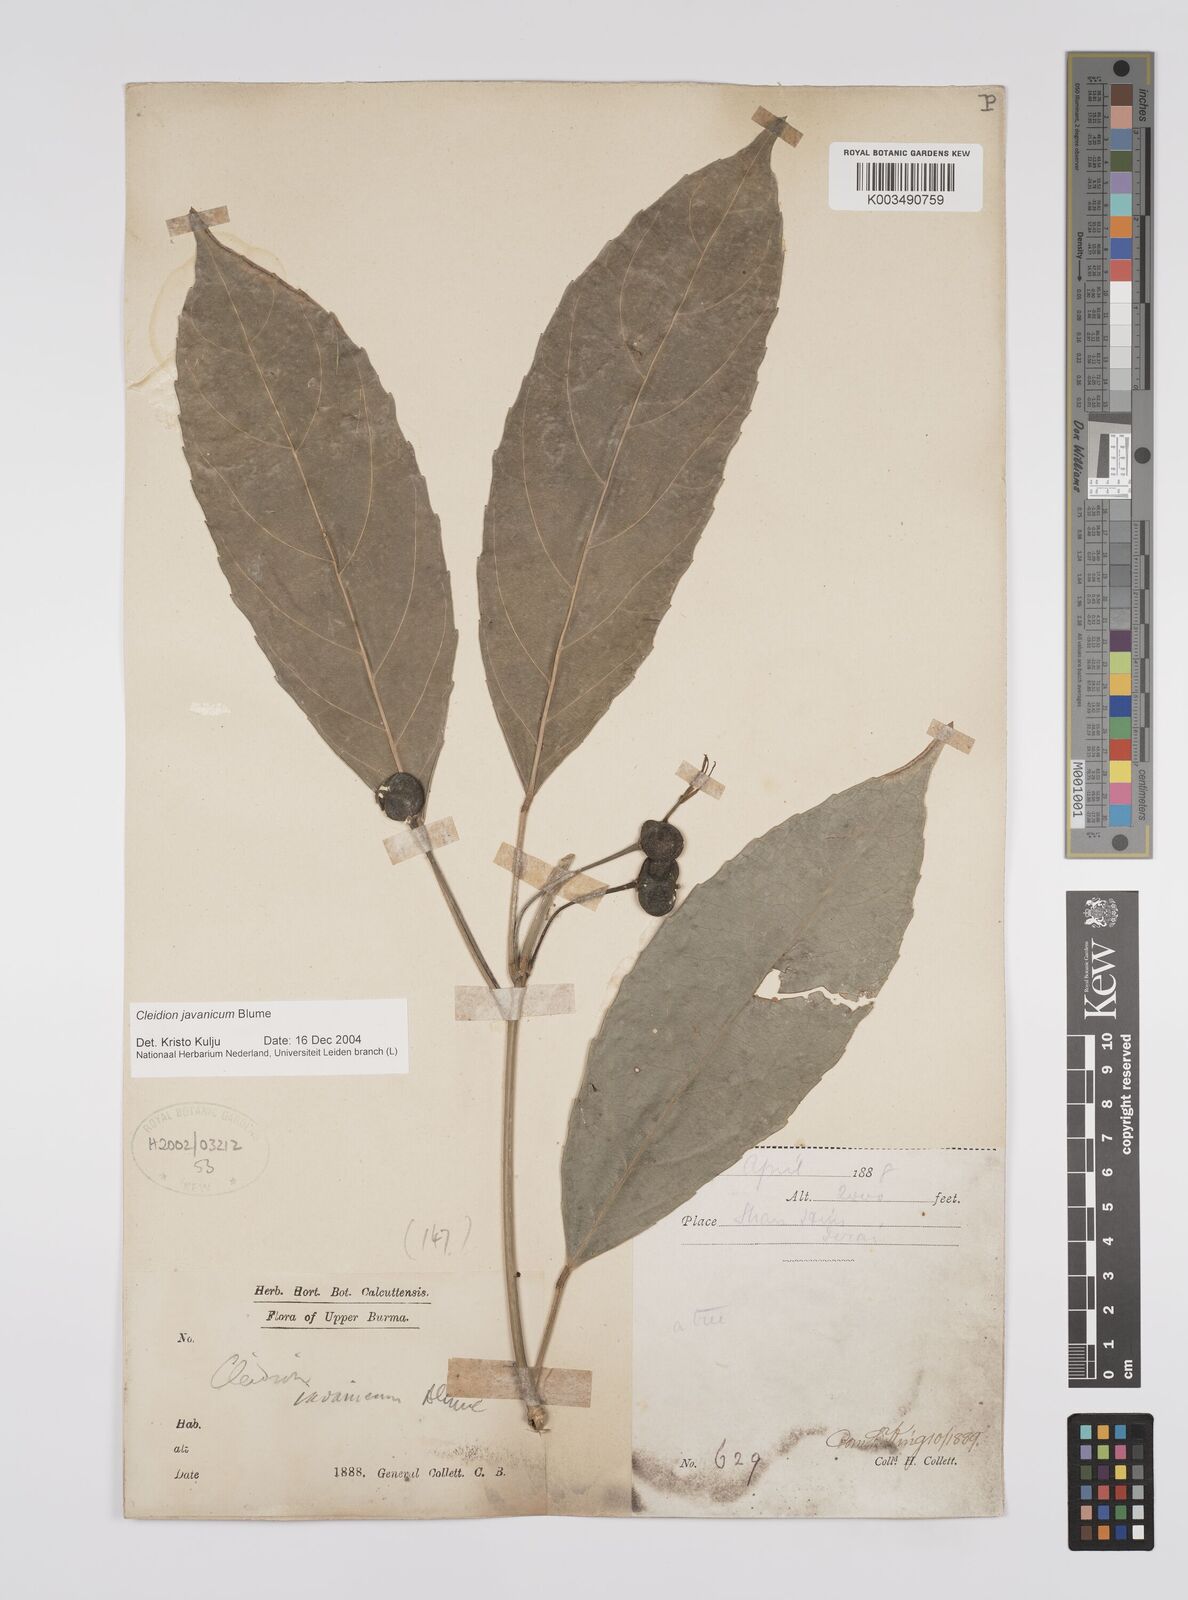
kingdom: Plantae
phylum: Tracheophyta
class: Magnoliopsida
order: Malpighiales
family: Euphorbiaceae
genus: Acalypha
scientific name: Acalypha spiciflora
